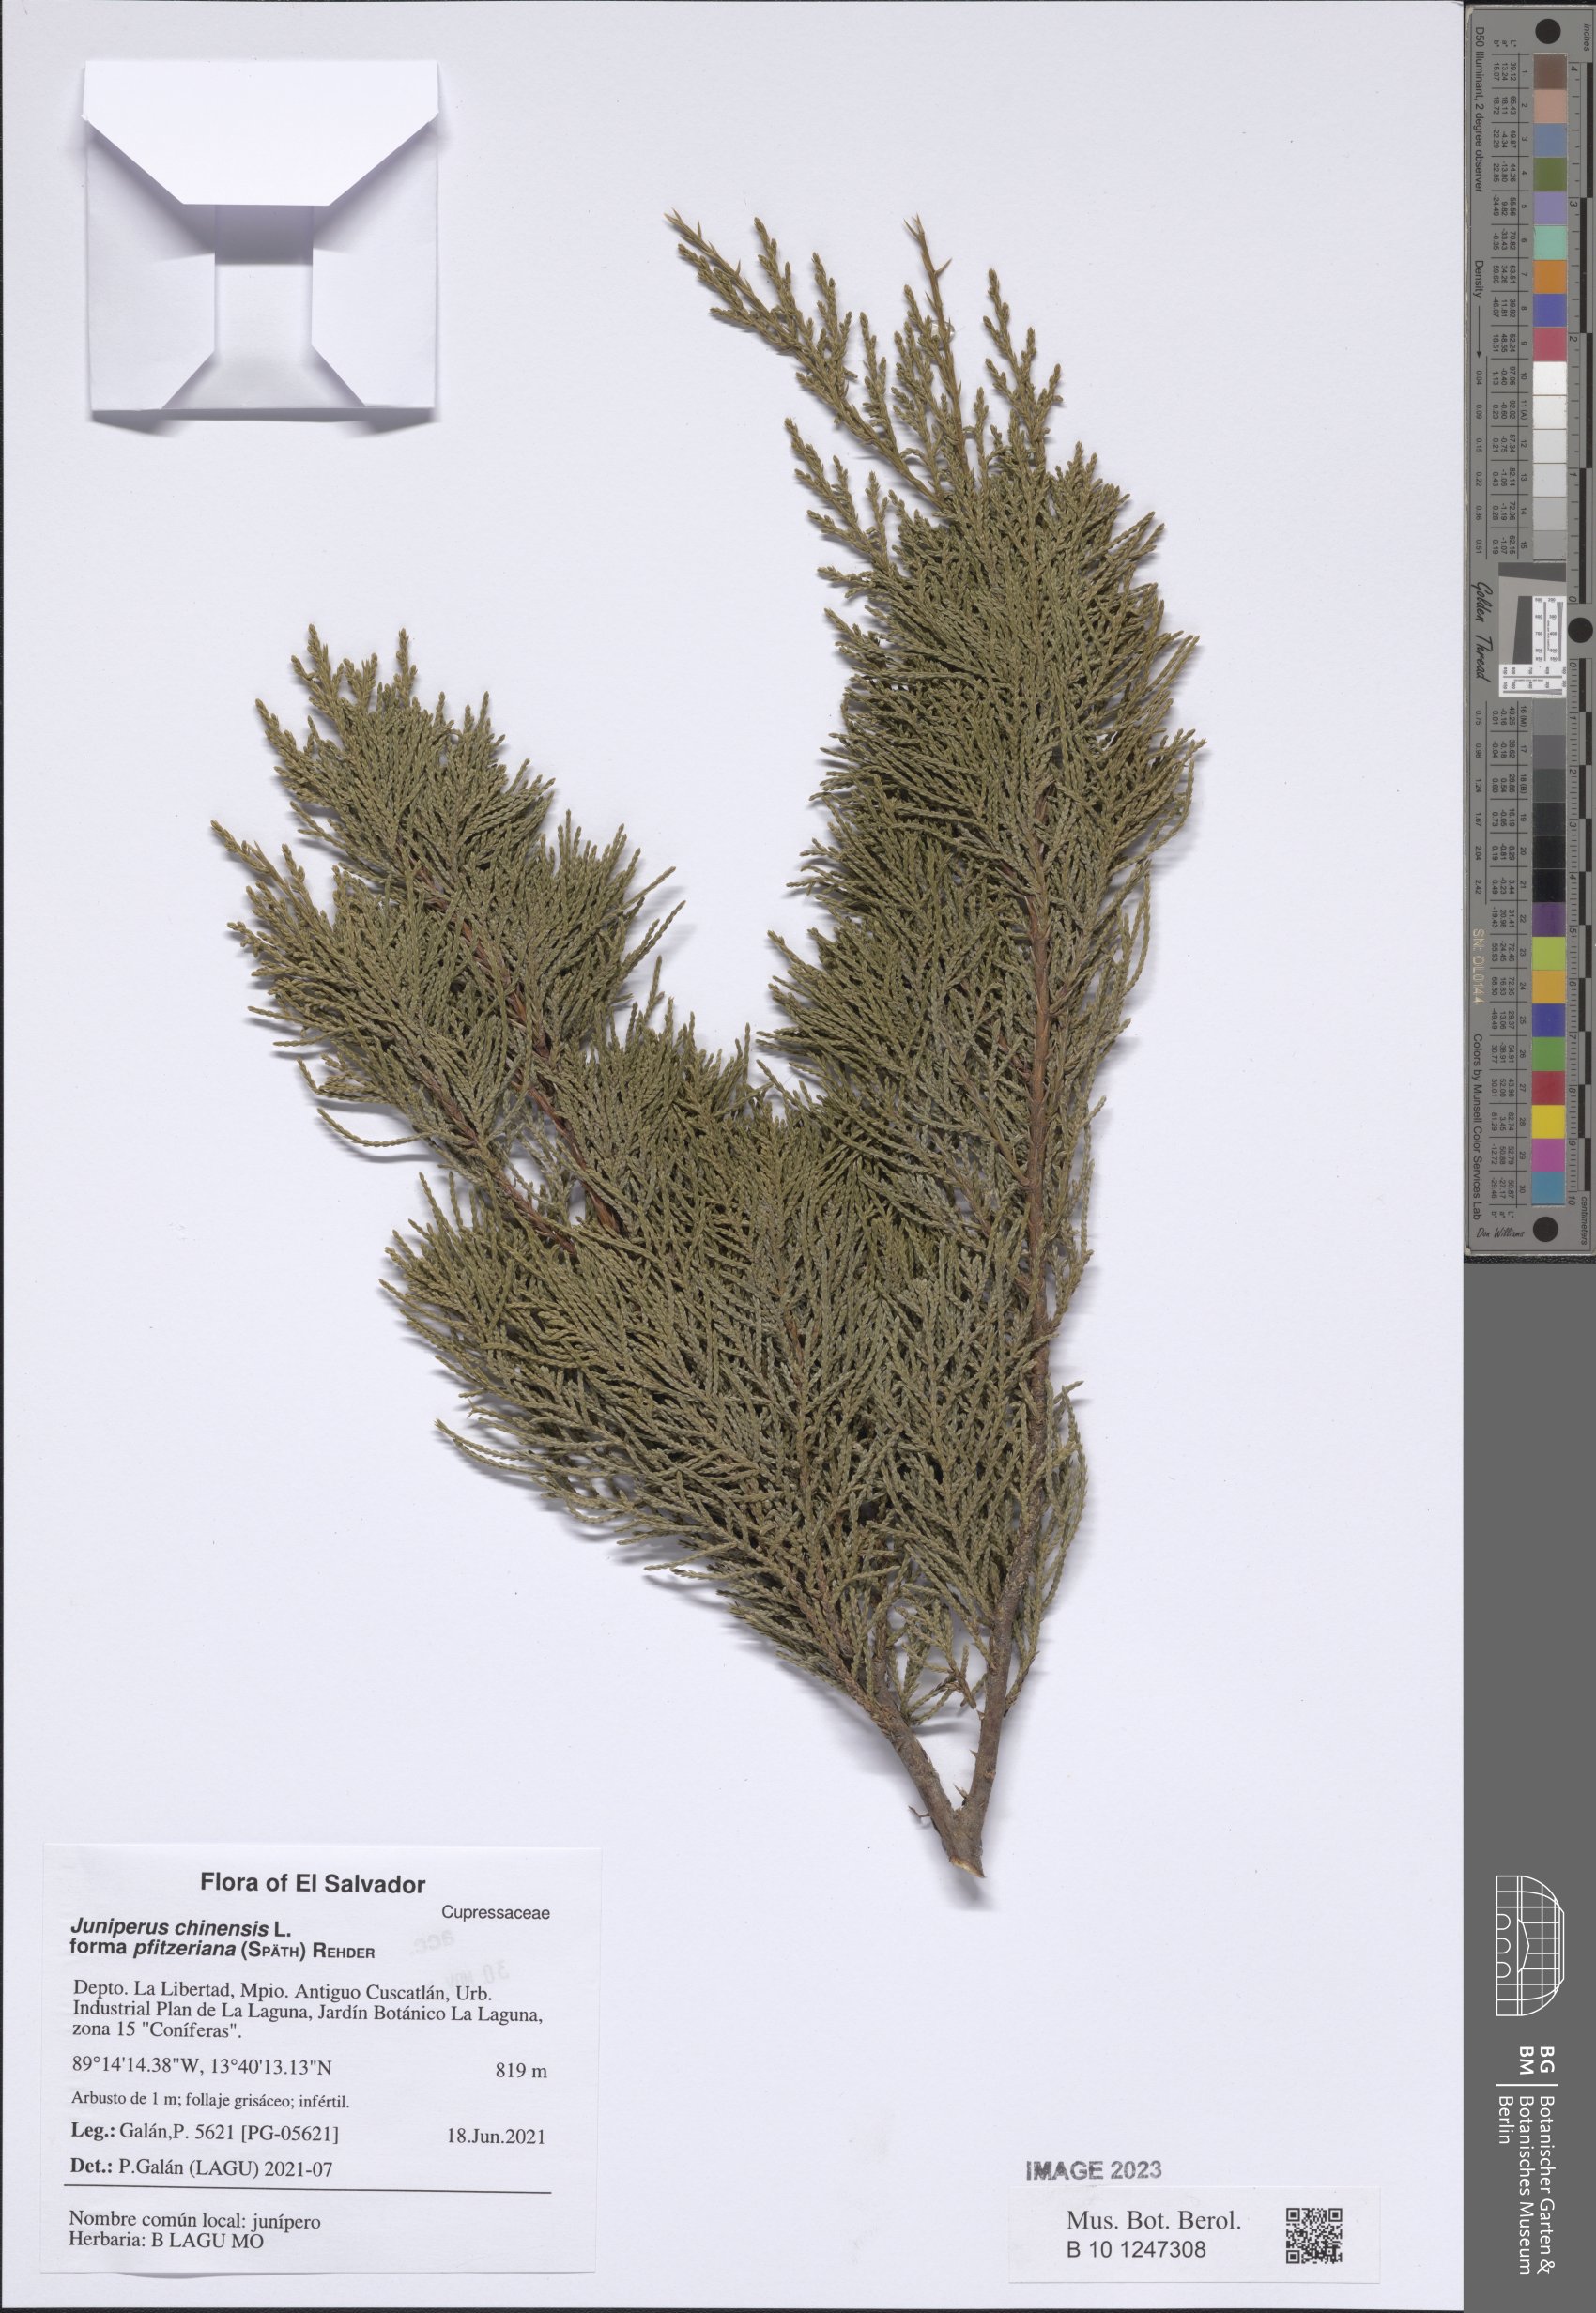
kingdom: Plantae
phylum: Tracheophyta
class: Pinopsida
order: Pinales
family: Cupressaceae
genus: Juniperus
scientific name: Juniperus pfitzeriana
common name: Pfitzer juniper
